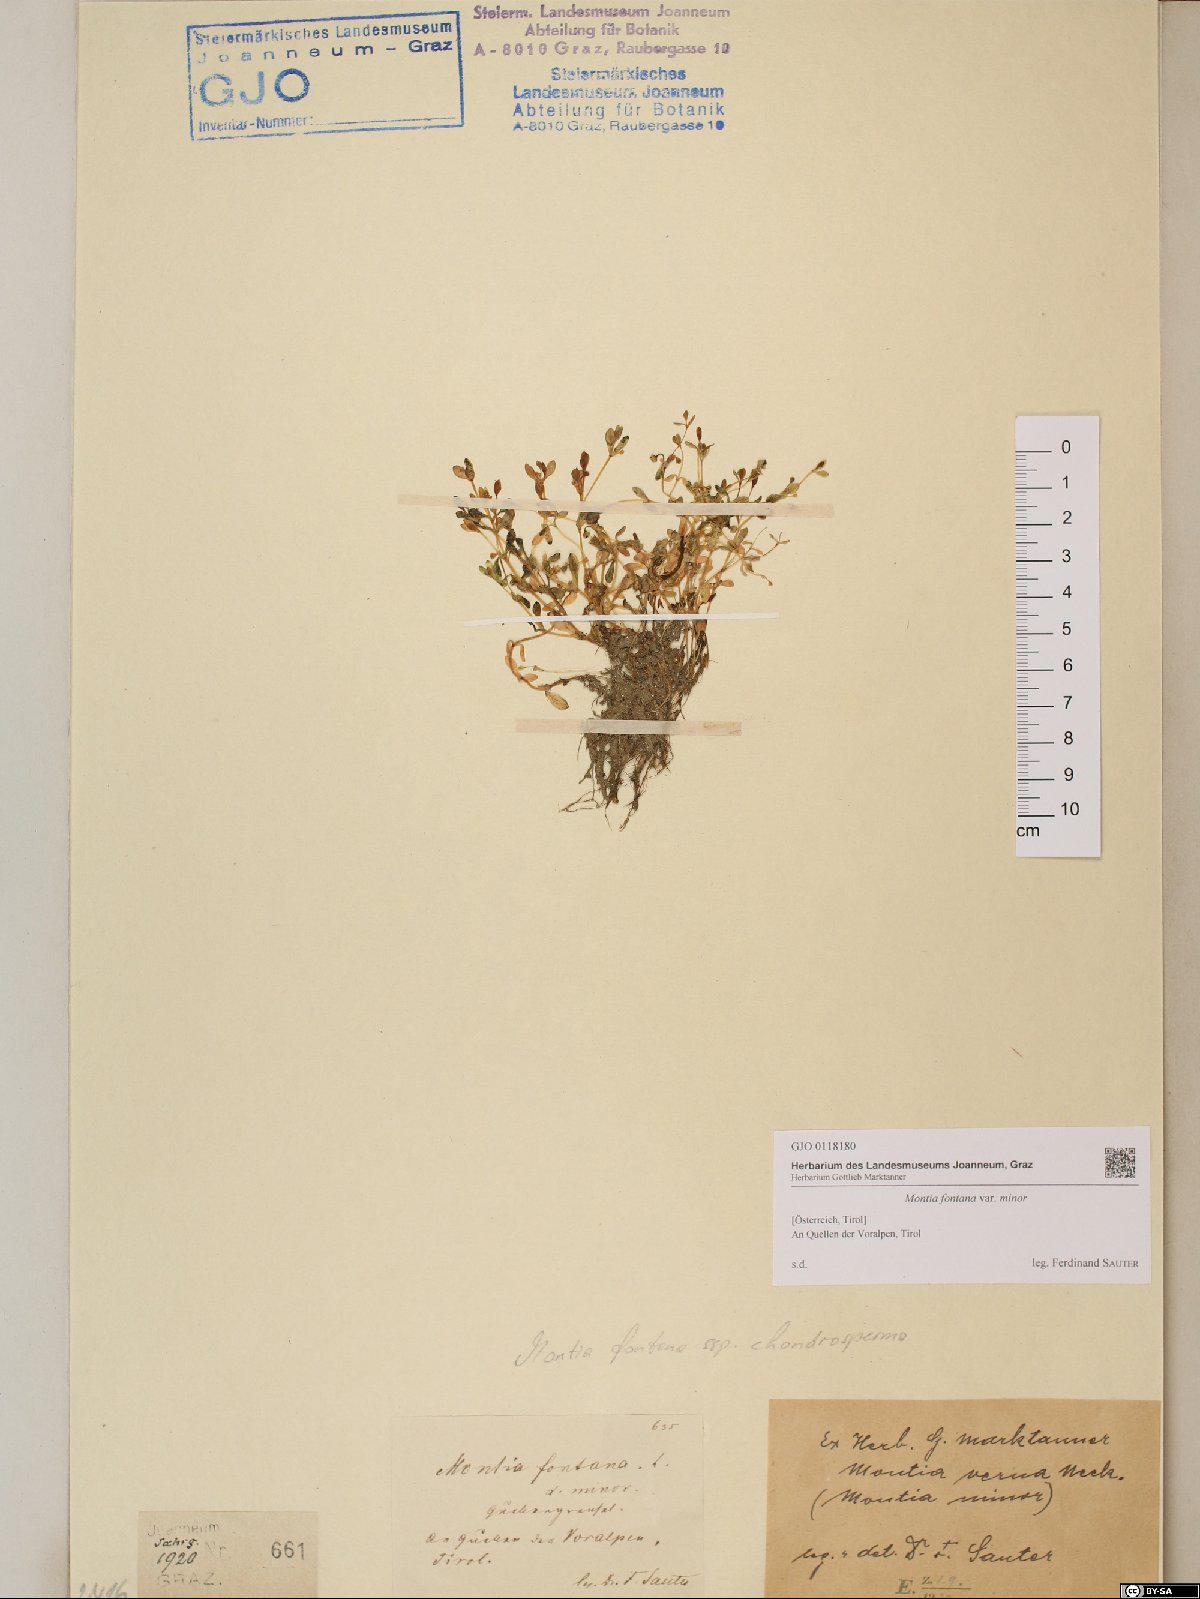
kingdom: Plantae
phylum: Tracheophyta
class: Magnoliopsida
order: Caryophyllales
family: Montiaceae
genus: Montia
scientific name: Montia fontana
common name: Blinks
